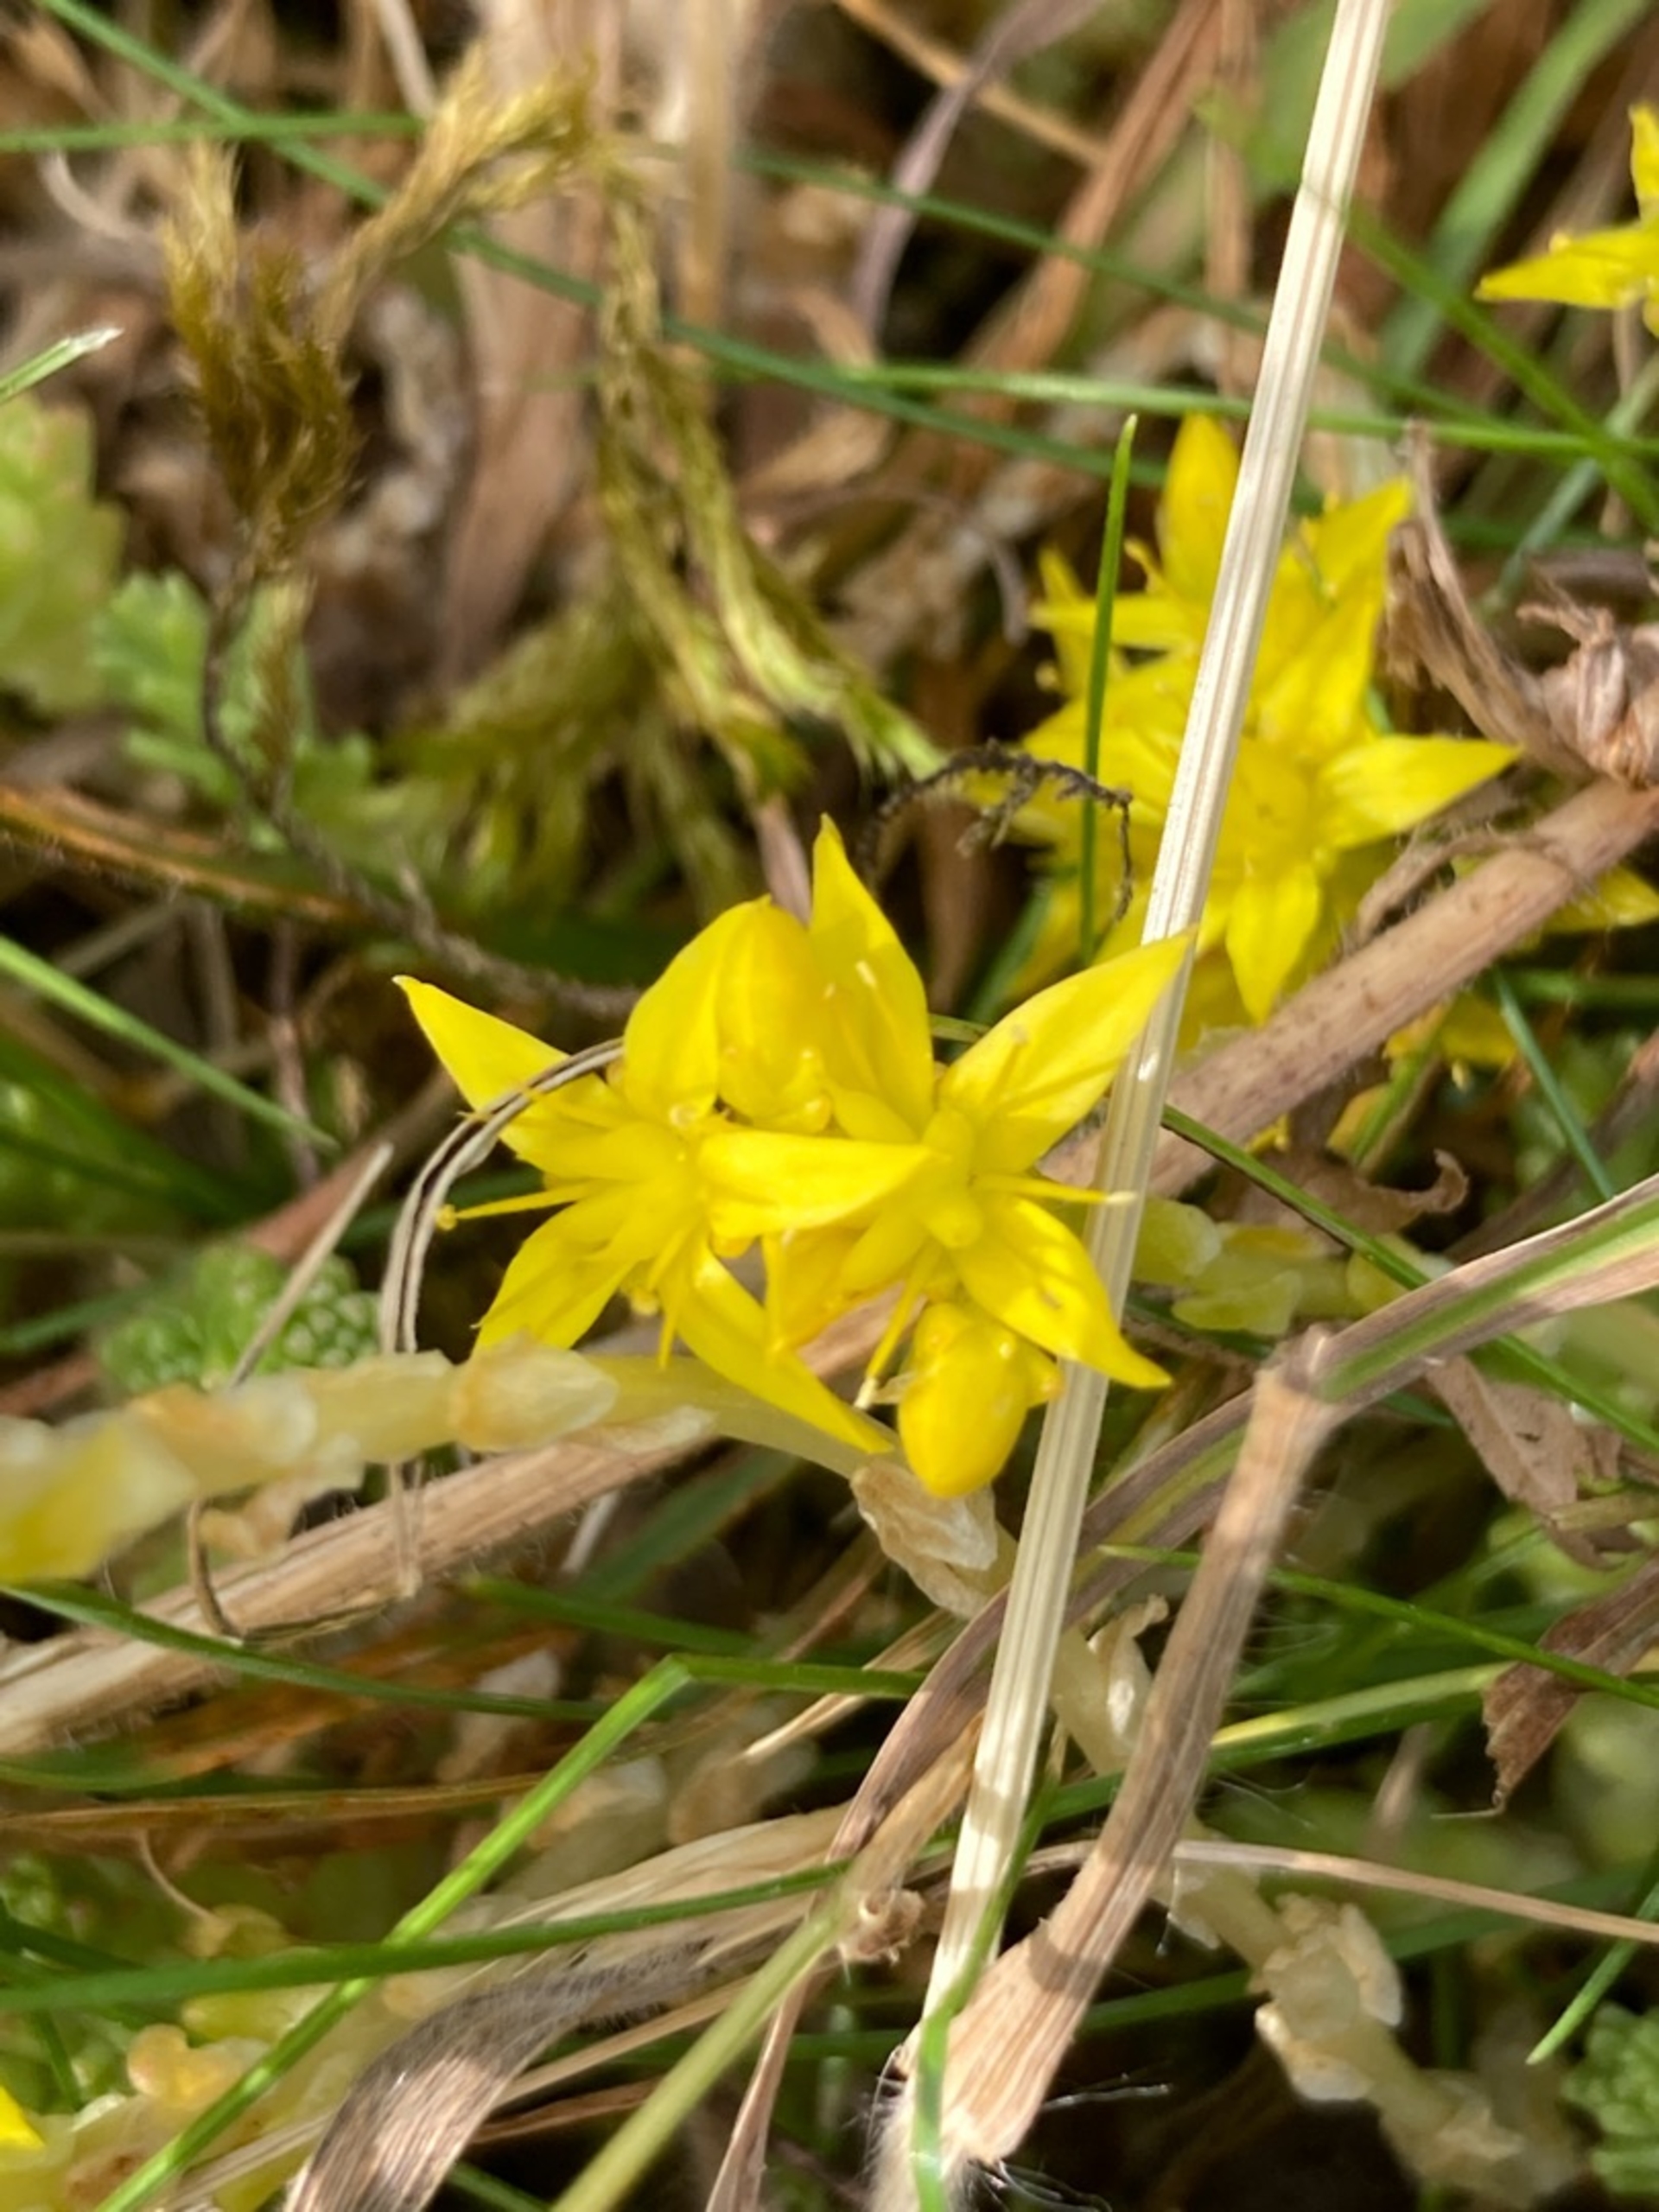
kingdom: Plantae
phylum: Tracheophyta
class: Magnoliopsida
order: Saxifragales
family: Crassulaceae
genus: Sedum
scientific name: Sedum acre
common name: Bidende stenurt
